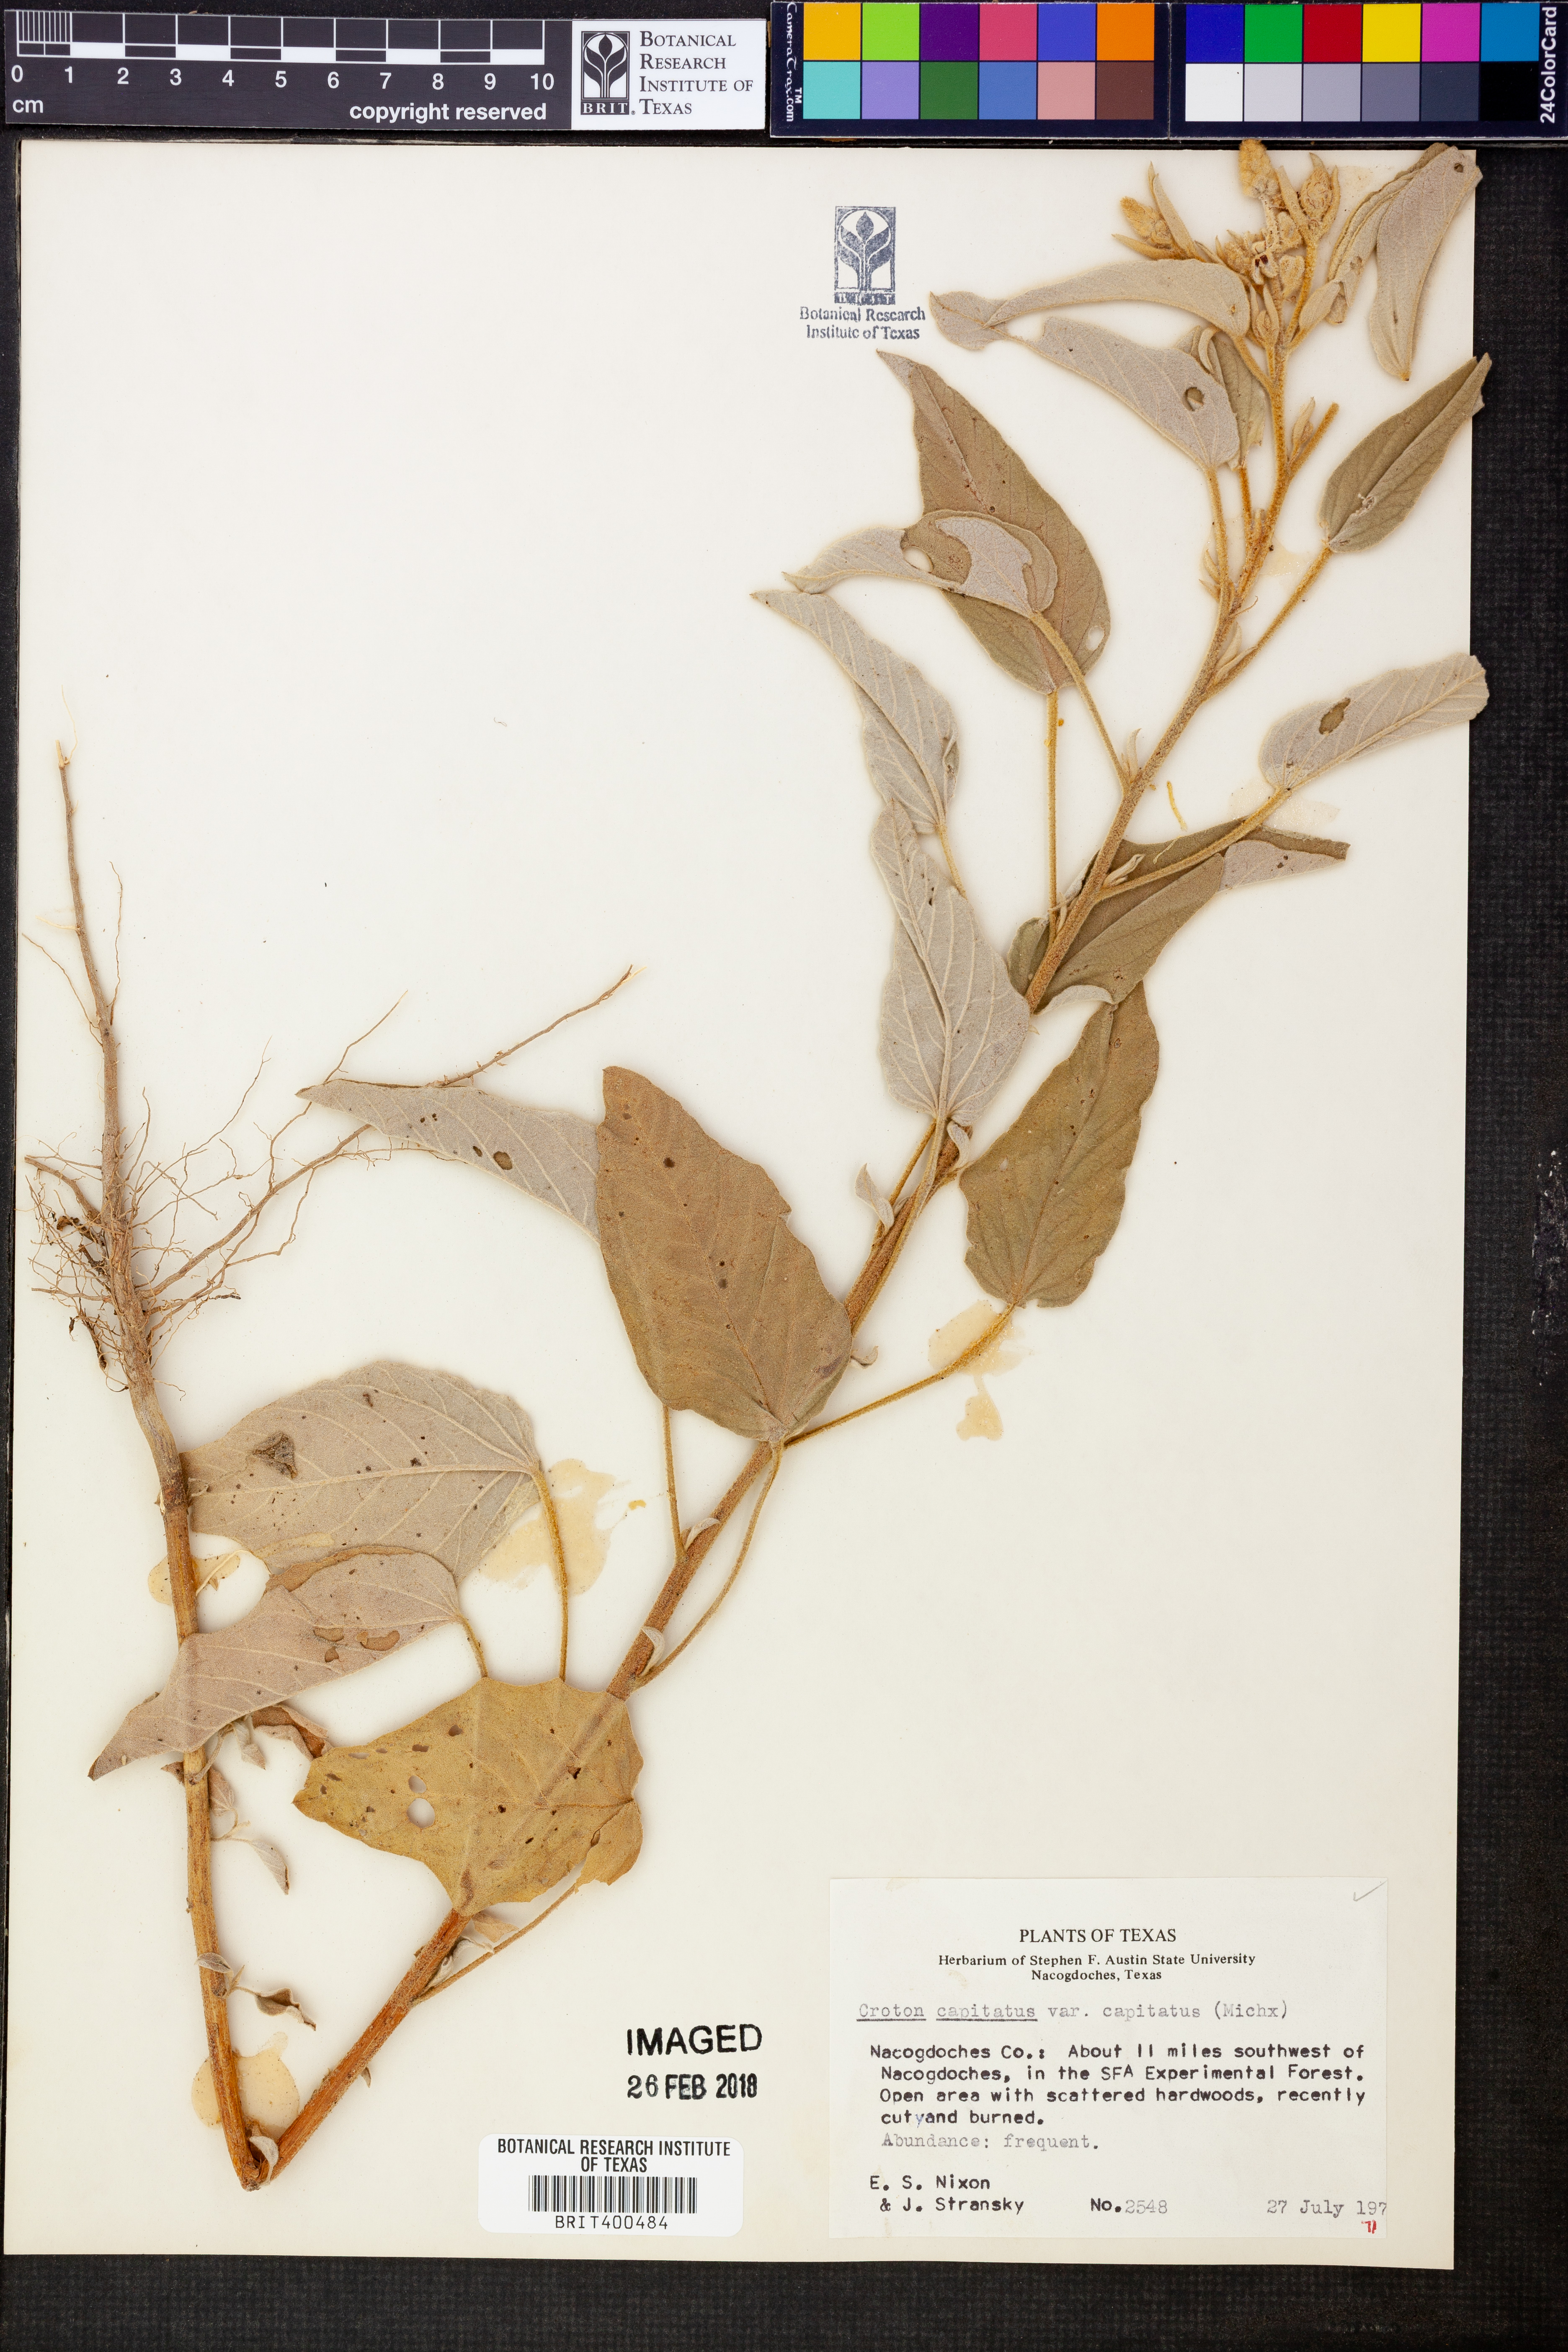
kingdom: Plantae
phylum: Tracheophyta
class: Magnoliopsida
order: Malpighiales
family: Euphorbiaceae
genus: Croton
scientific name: Croton capitatus
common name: Woolly croton
